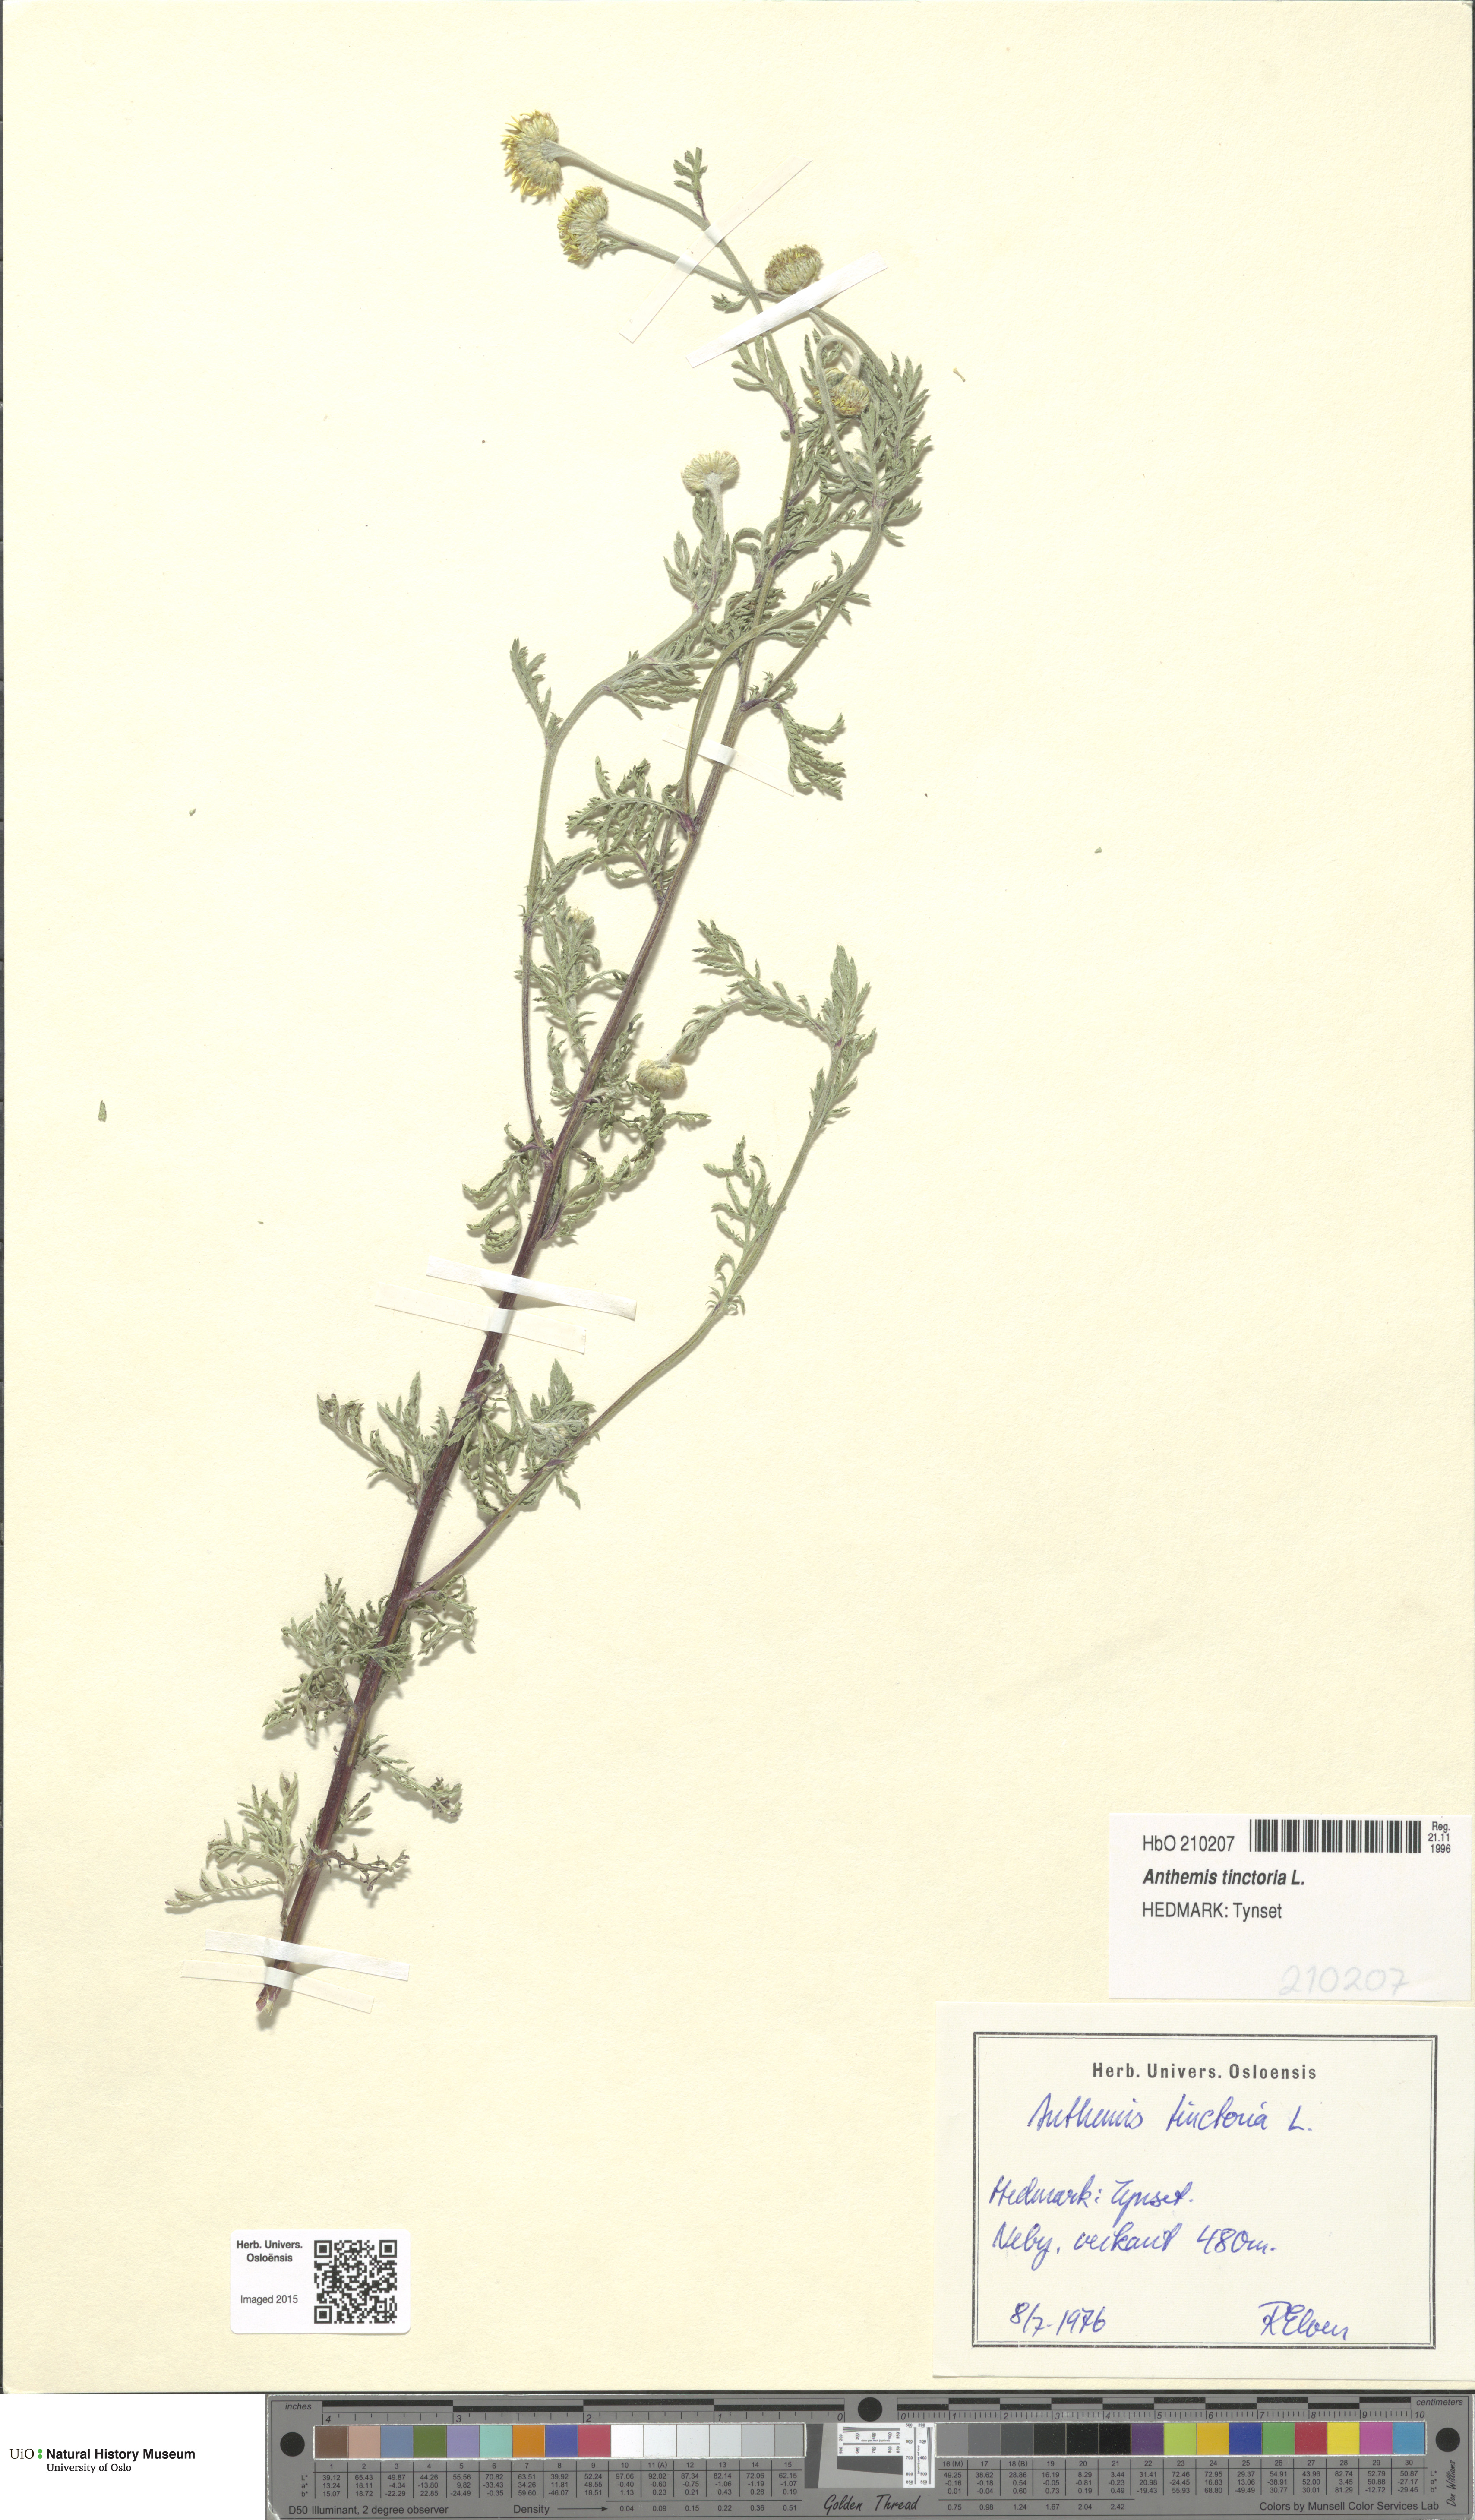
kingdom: Plantae
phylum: Tracheophyta
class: Magnoliopsida
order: Asterales
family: Asteraceae
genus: Cota
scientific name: Cota tinctoria
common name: Golden chamomile
